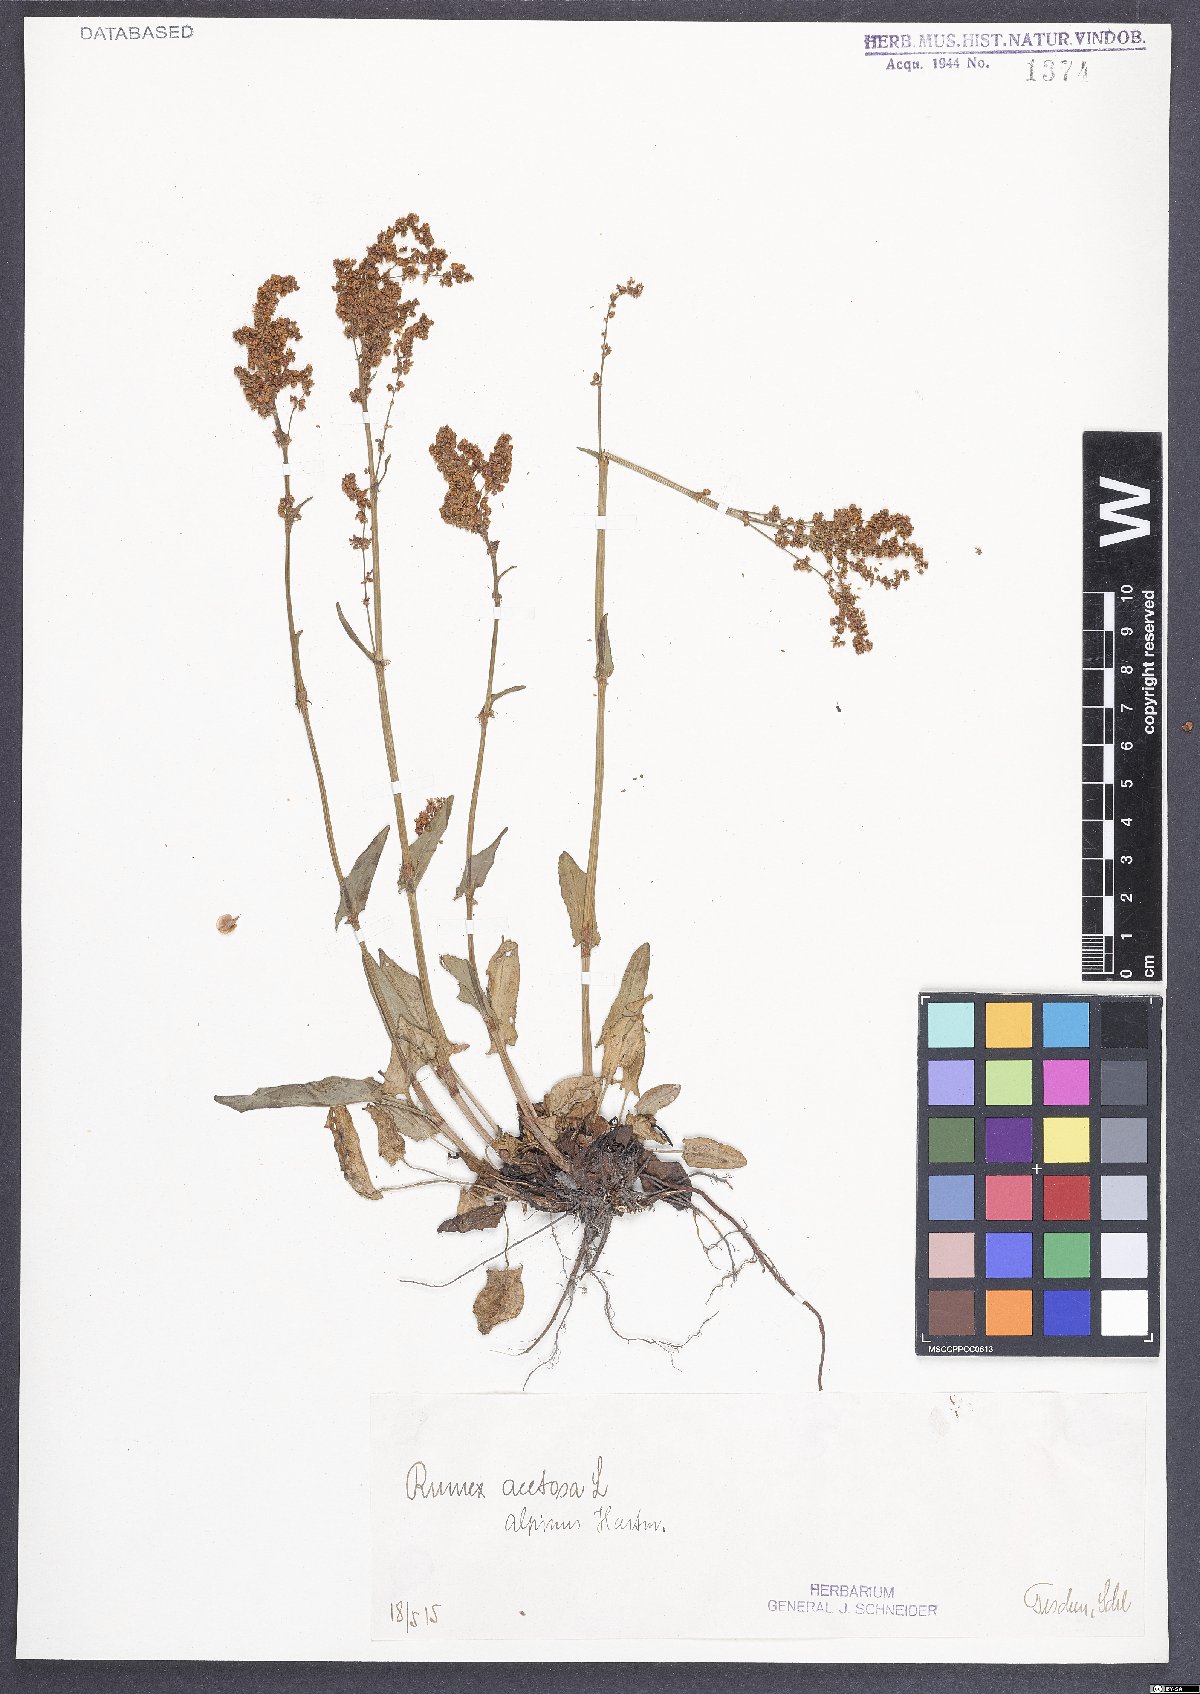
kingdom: Plantae
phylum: Tracheophyta
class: Magnoliopsida
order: Caryophyllales
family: Polygonaceae
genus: Rumex
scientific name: Rumex acetosa
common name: Garden sorrel
